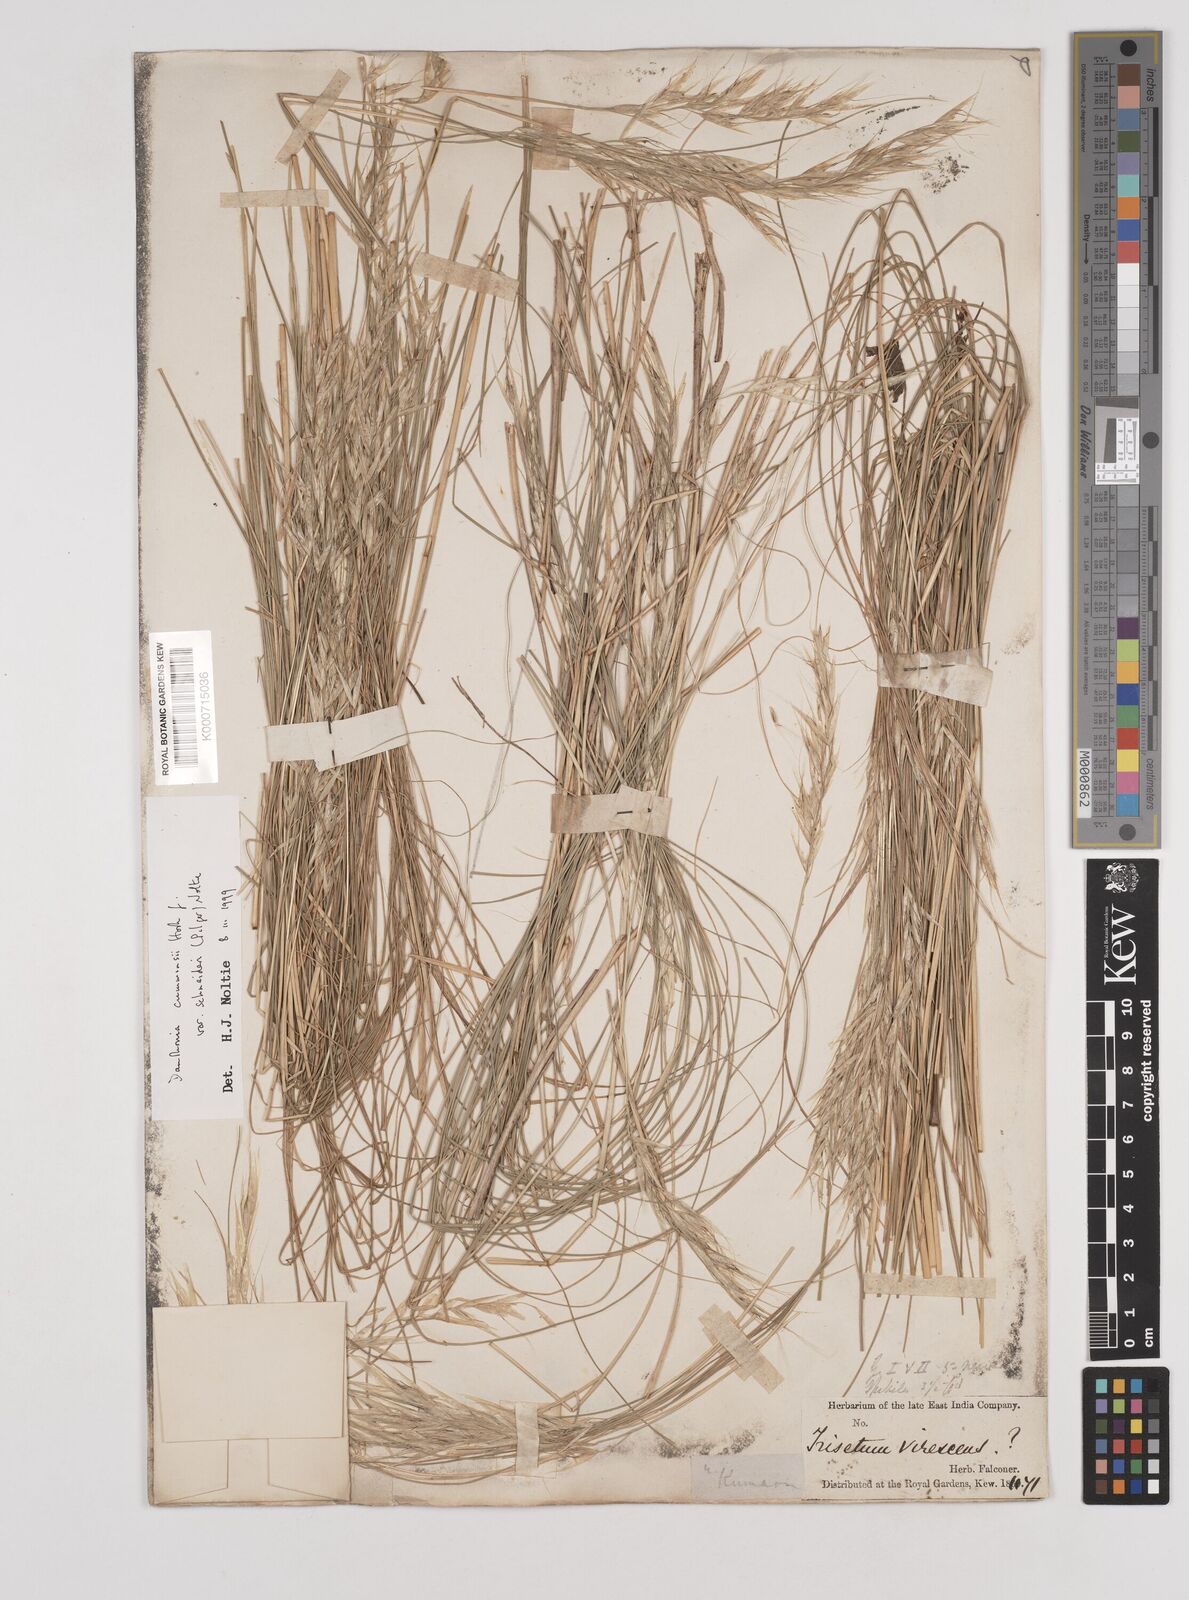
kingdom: Plantae
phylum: Tracheophyta
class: Liliopsida
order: Poales
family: Poaceae
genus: Rytidosperma
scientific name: Rytidosperma
